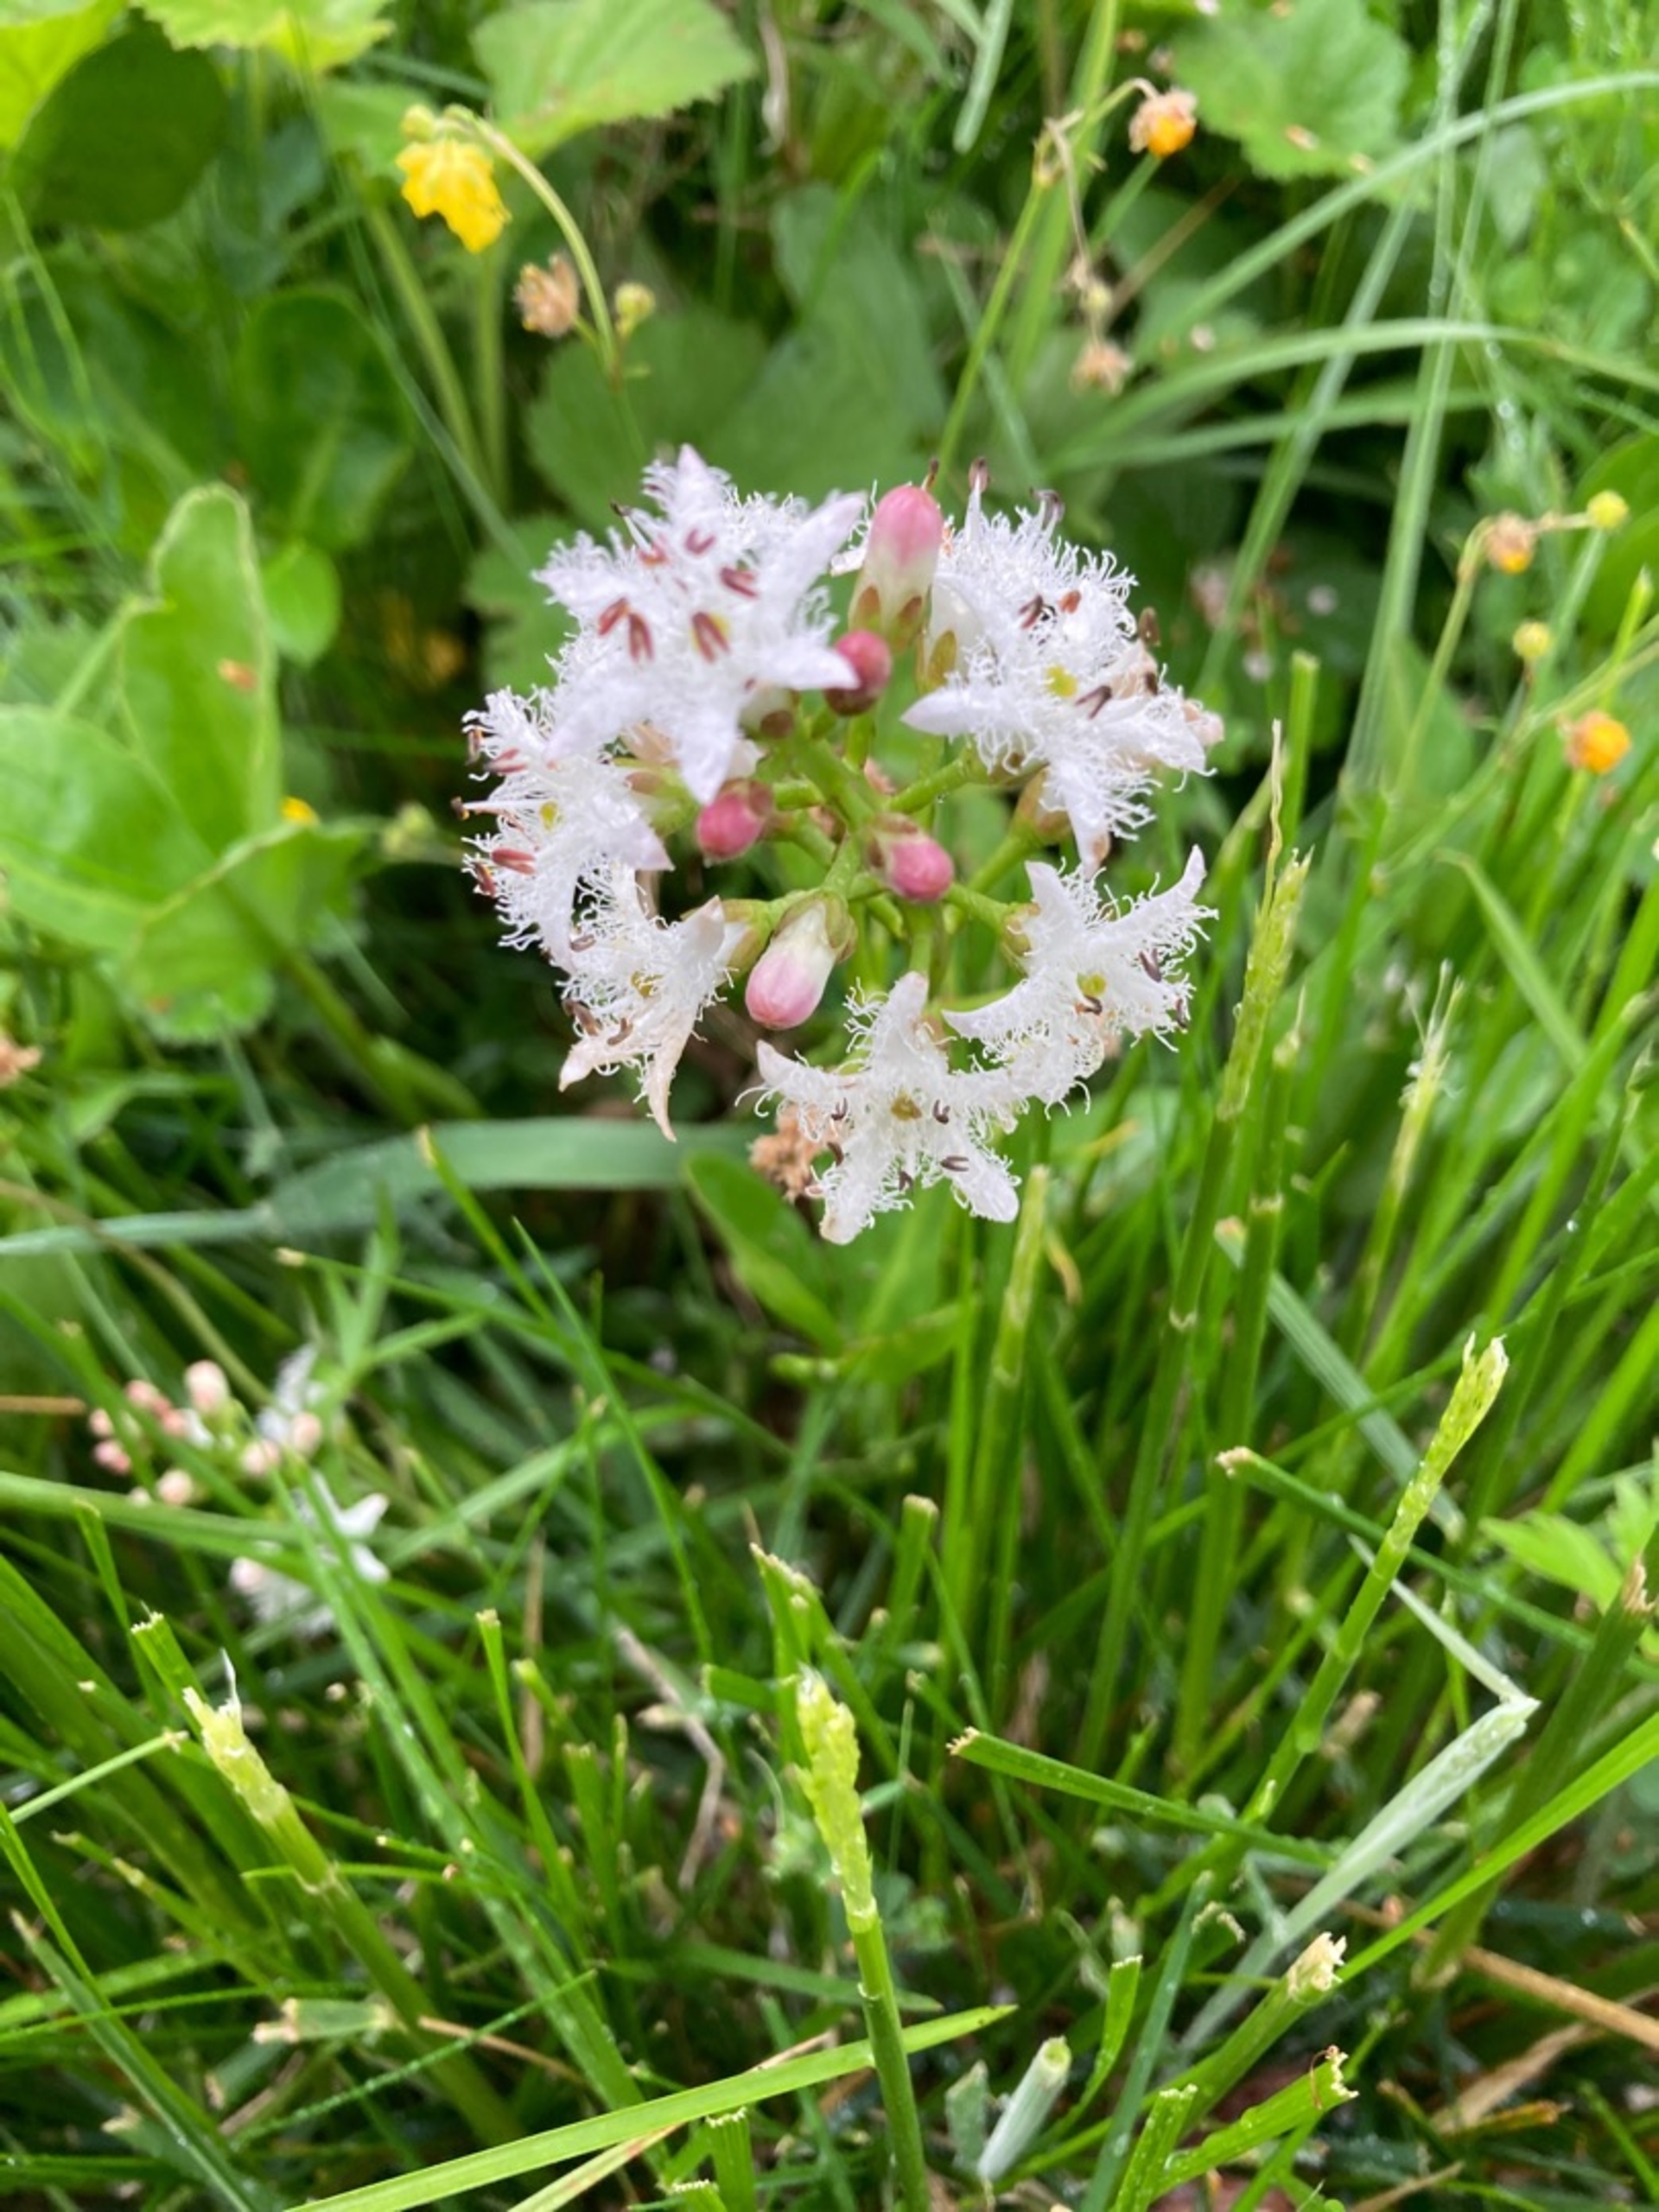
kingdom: Plantae
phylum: Tracheophyta
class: Magnoliopsida
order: Asterales
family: Menyanthaceae
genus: Menyanthes
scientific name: Menyanthes trifoliata
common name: Bukkeblad
